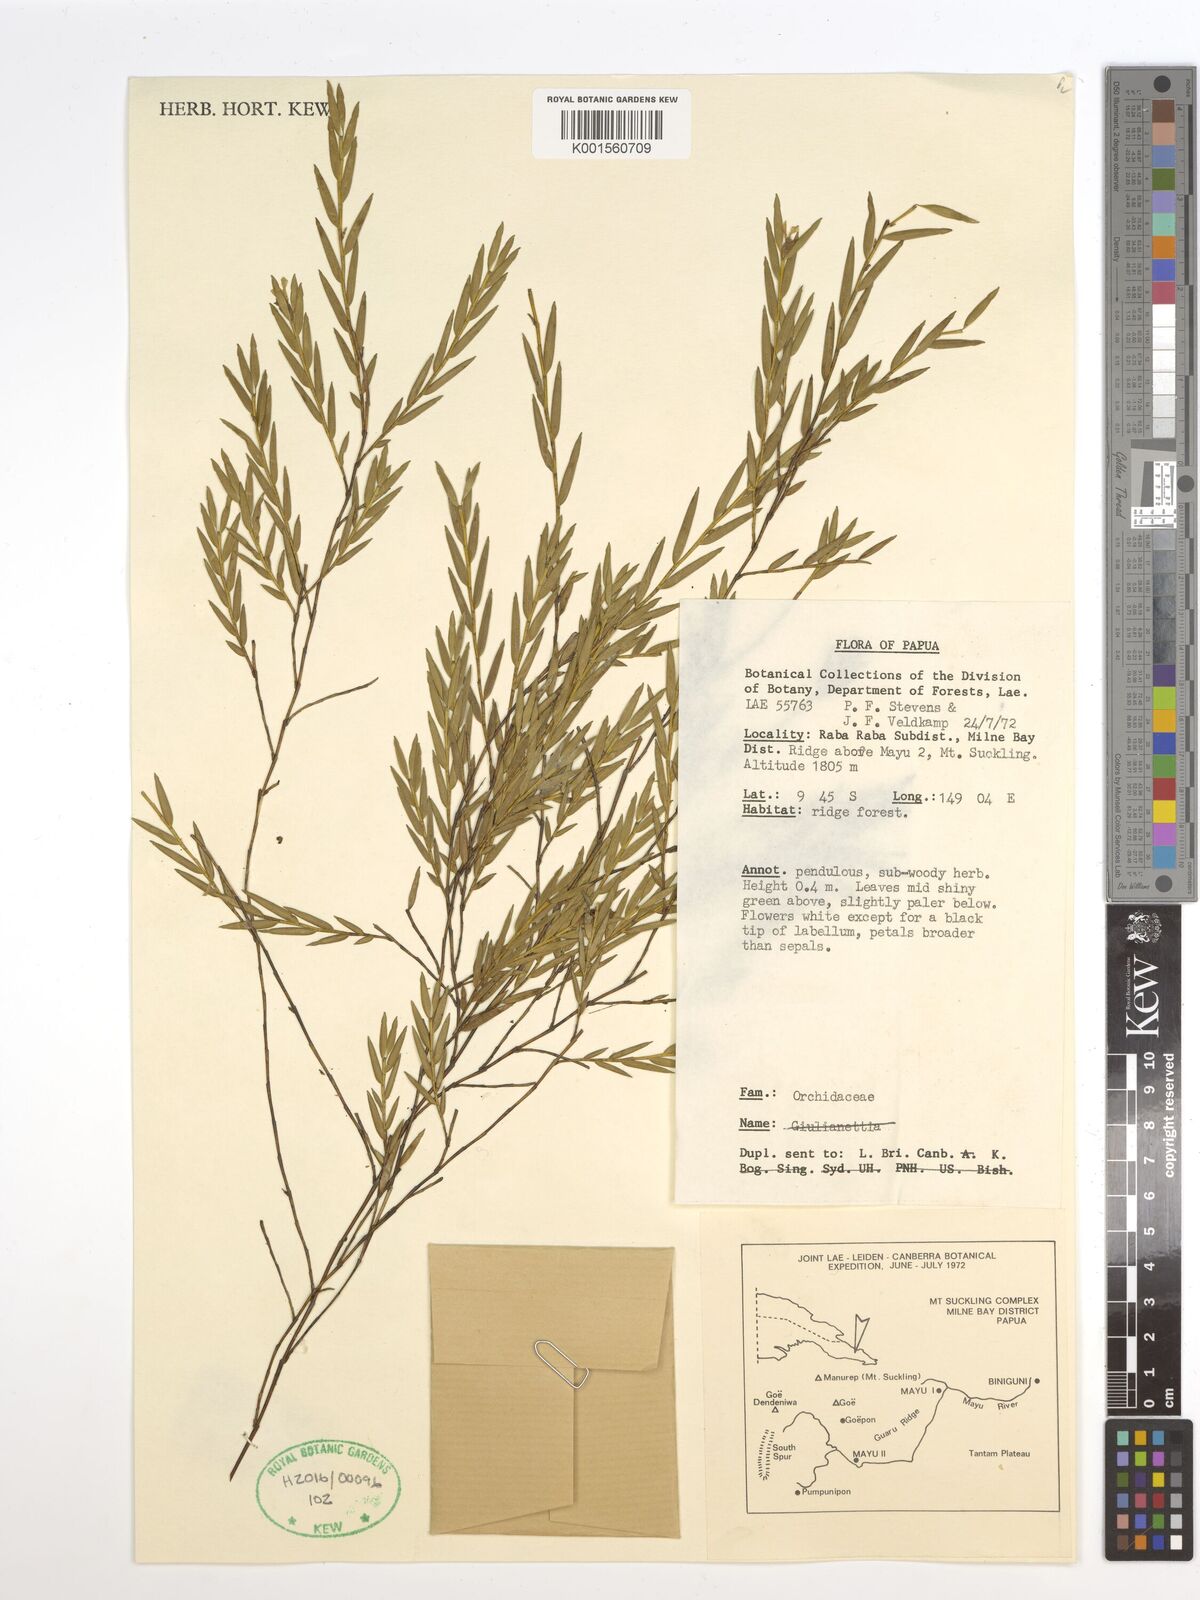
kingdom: Plantae
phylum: Tracheophyta
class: Liliopsida
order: Asparagales
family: Orchidaceae
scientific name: Orchidaceae
